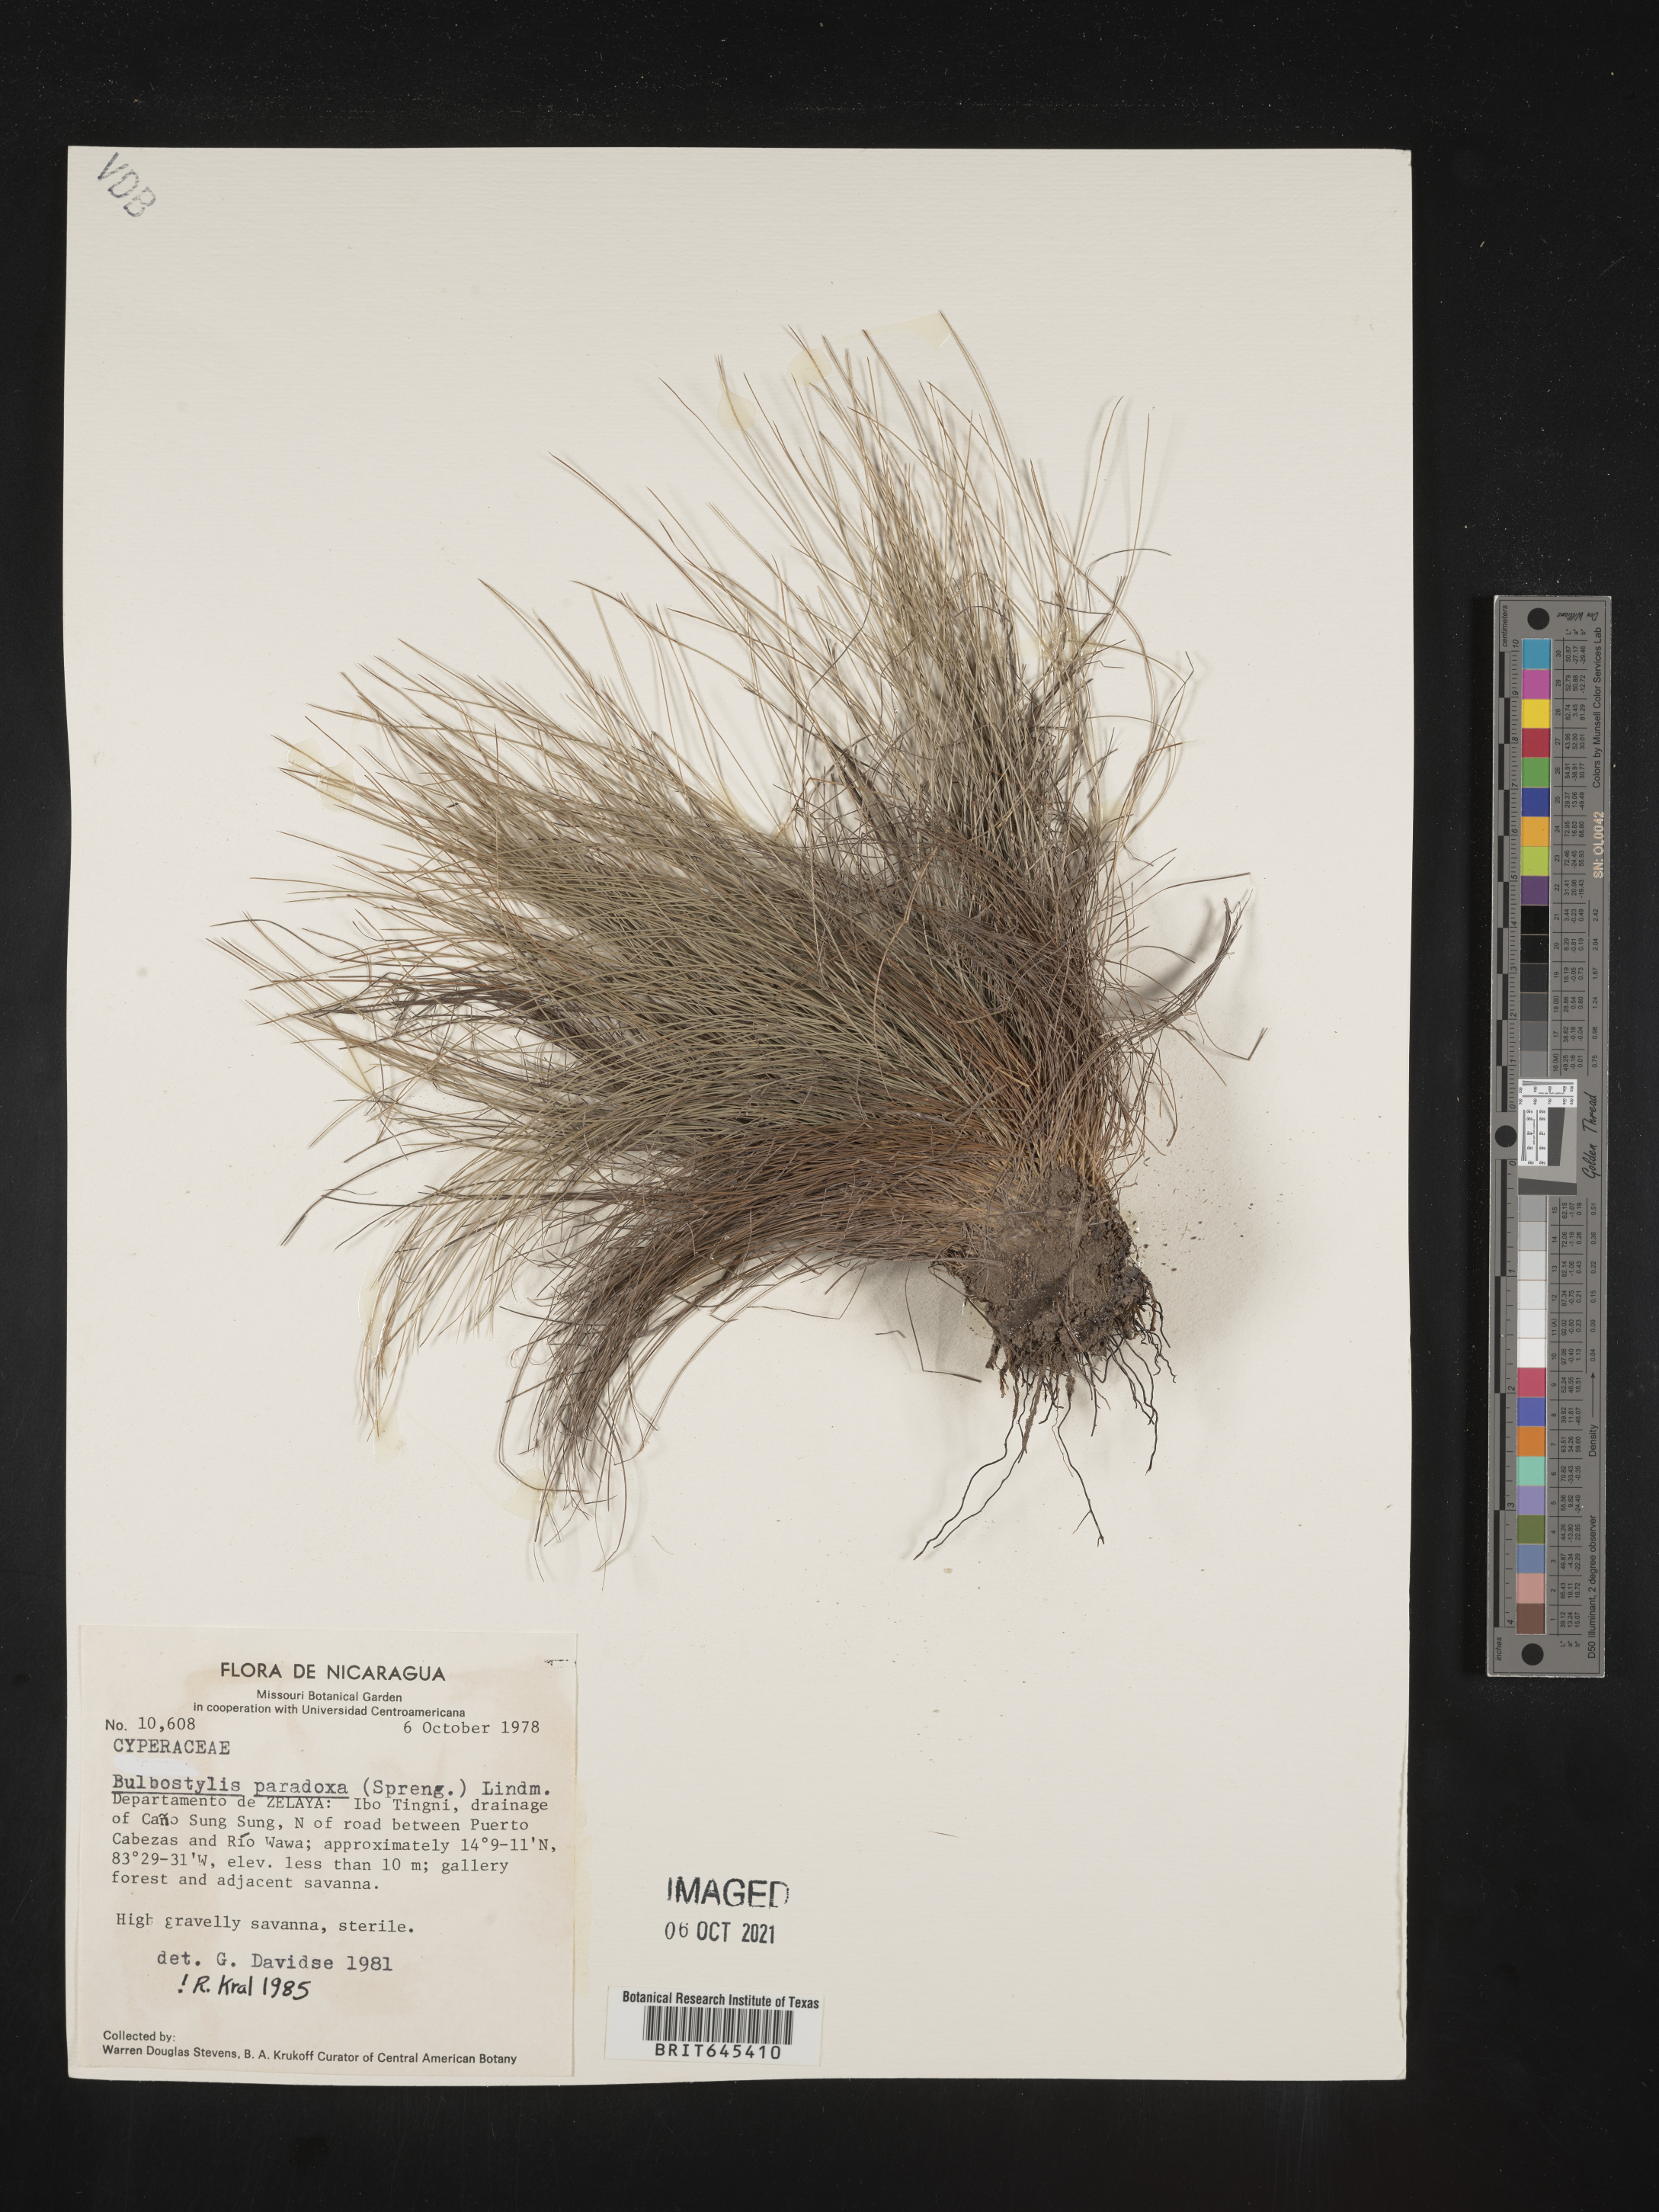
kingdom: Plantae
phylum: Tracheophyta
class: Liliopsida
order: Poales
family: Cyperaceae
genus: Bulbostylis
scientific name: Bulbostylis paradoxa
